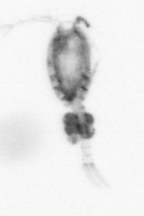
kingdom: Animalia
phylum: Arthropoda
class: Copepoda
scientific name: Copepoda
